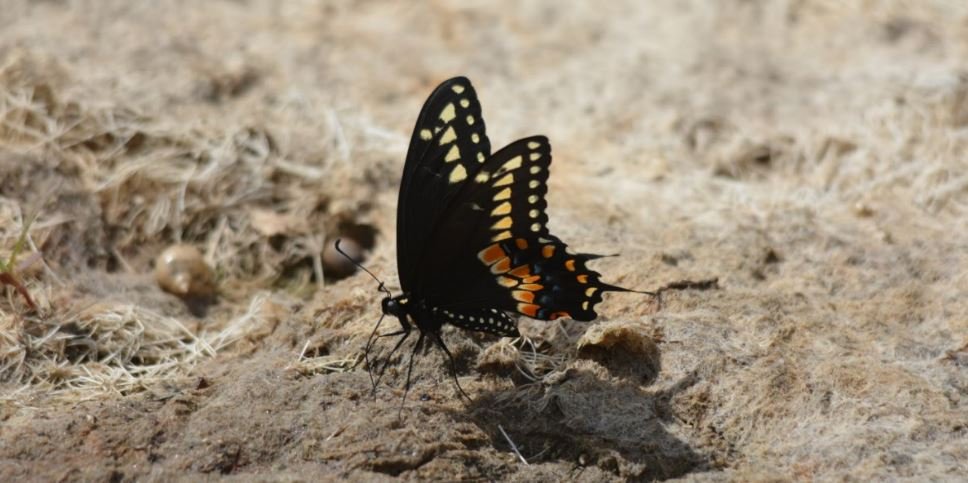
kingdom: Animalia
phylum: Arthropoda
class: Insecta
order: Lepidoptera
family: Papilionidae
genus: Papilio
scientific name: Papilio polyxenes
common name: Black Swallowtail
